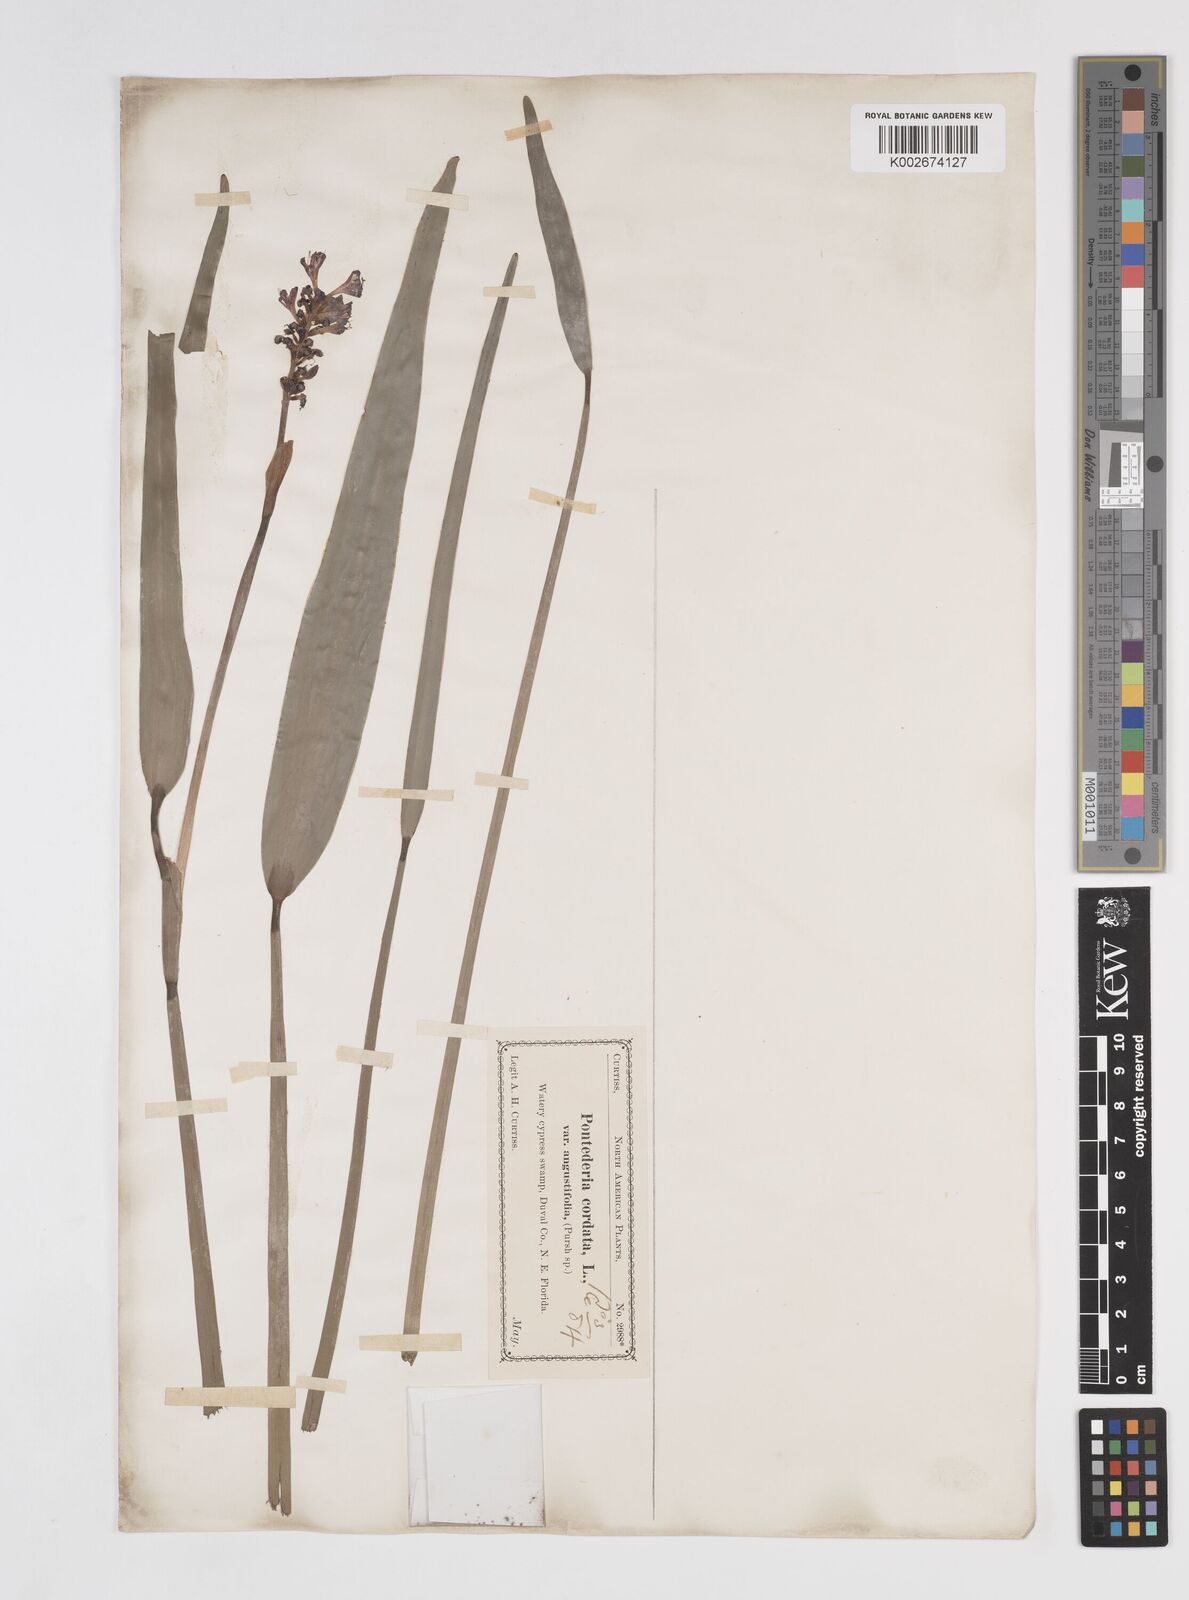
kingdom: Plantae
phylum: Tracheophyta
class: Liliopsida
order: Commelinales
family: Pontederiaceae
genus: Pontederia
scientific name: Pontederia cordata
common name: Pickerelweed
